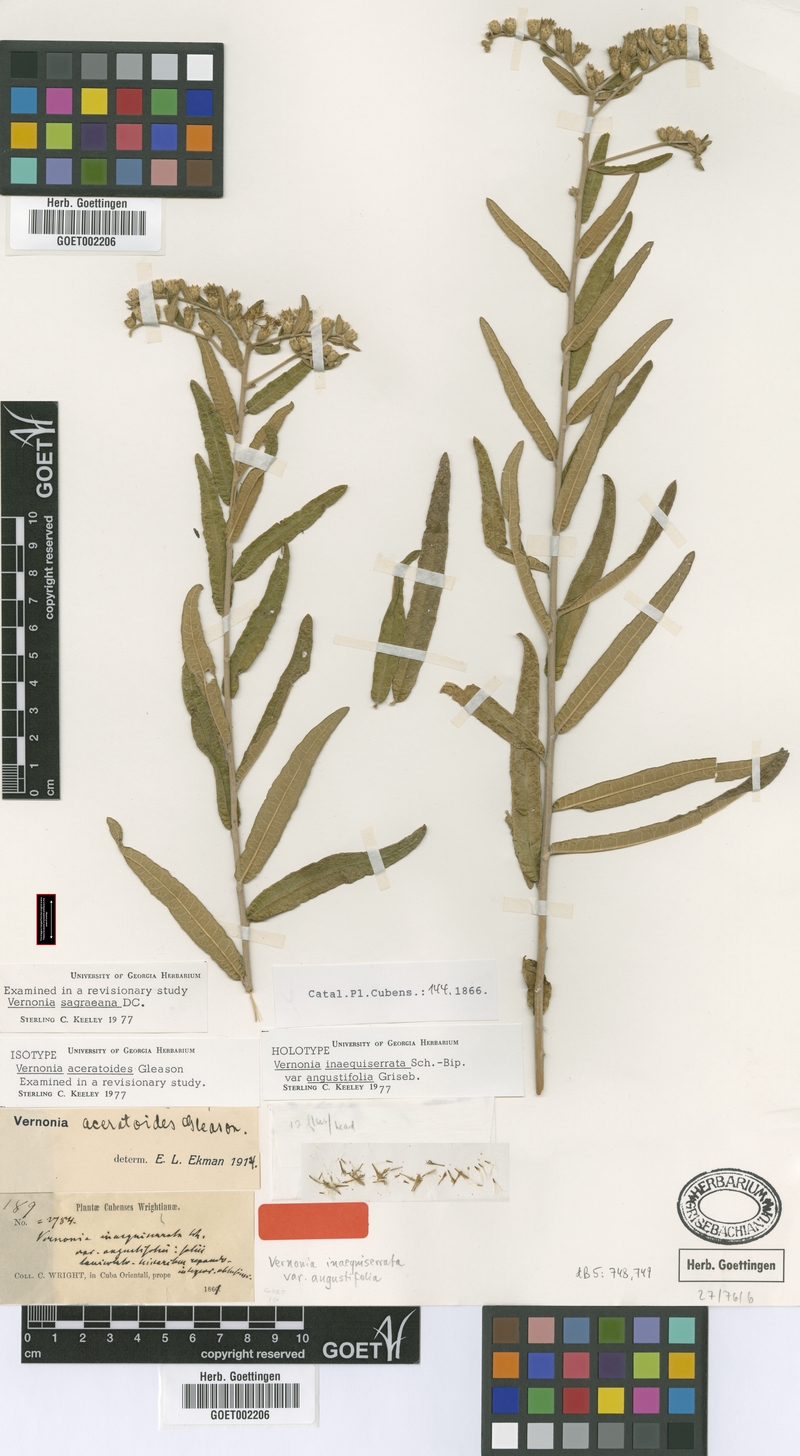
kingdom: Plantae
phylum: Tracheophyta
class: Magnoliopsida
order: Asterales
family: Asteraceae
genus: Lepidaploa
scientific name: Lepidaploa sagraeana
